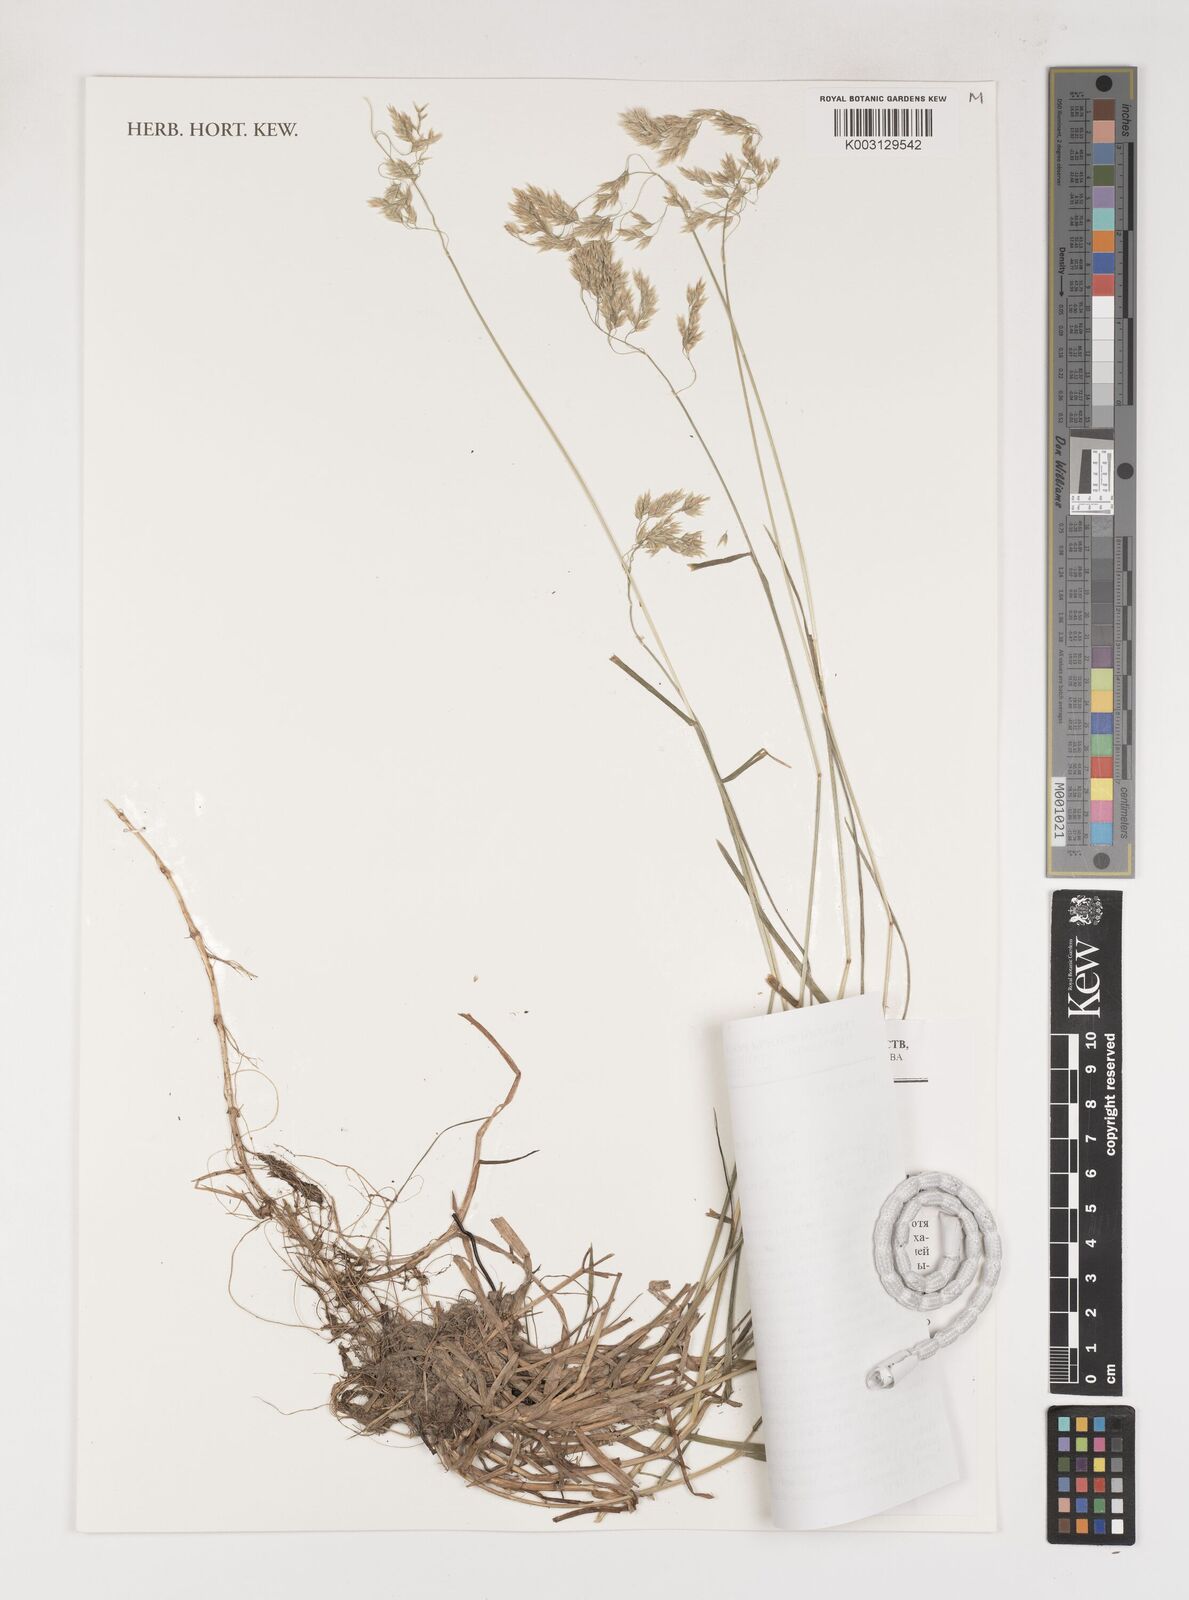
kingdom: Plantae
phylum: Tracheophyta
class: Liliopsida
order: Poales
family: Poaceae
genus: Poa
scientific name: Poa finitima
